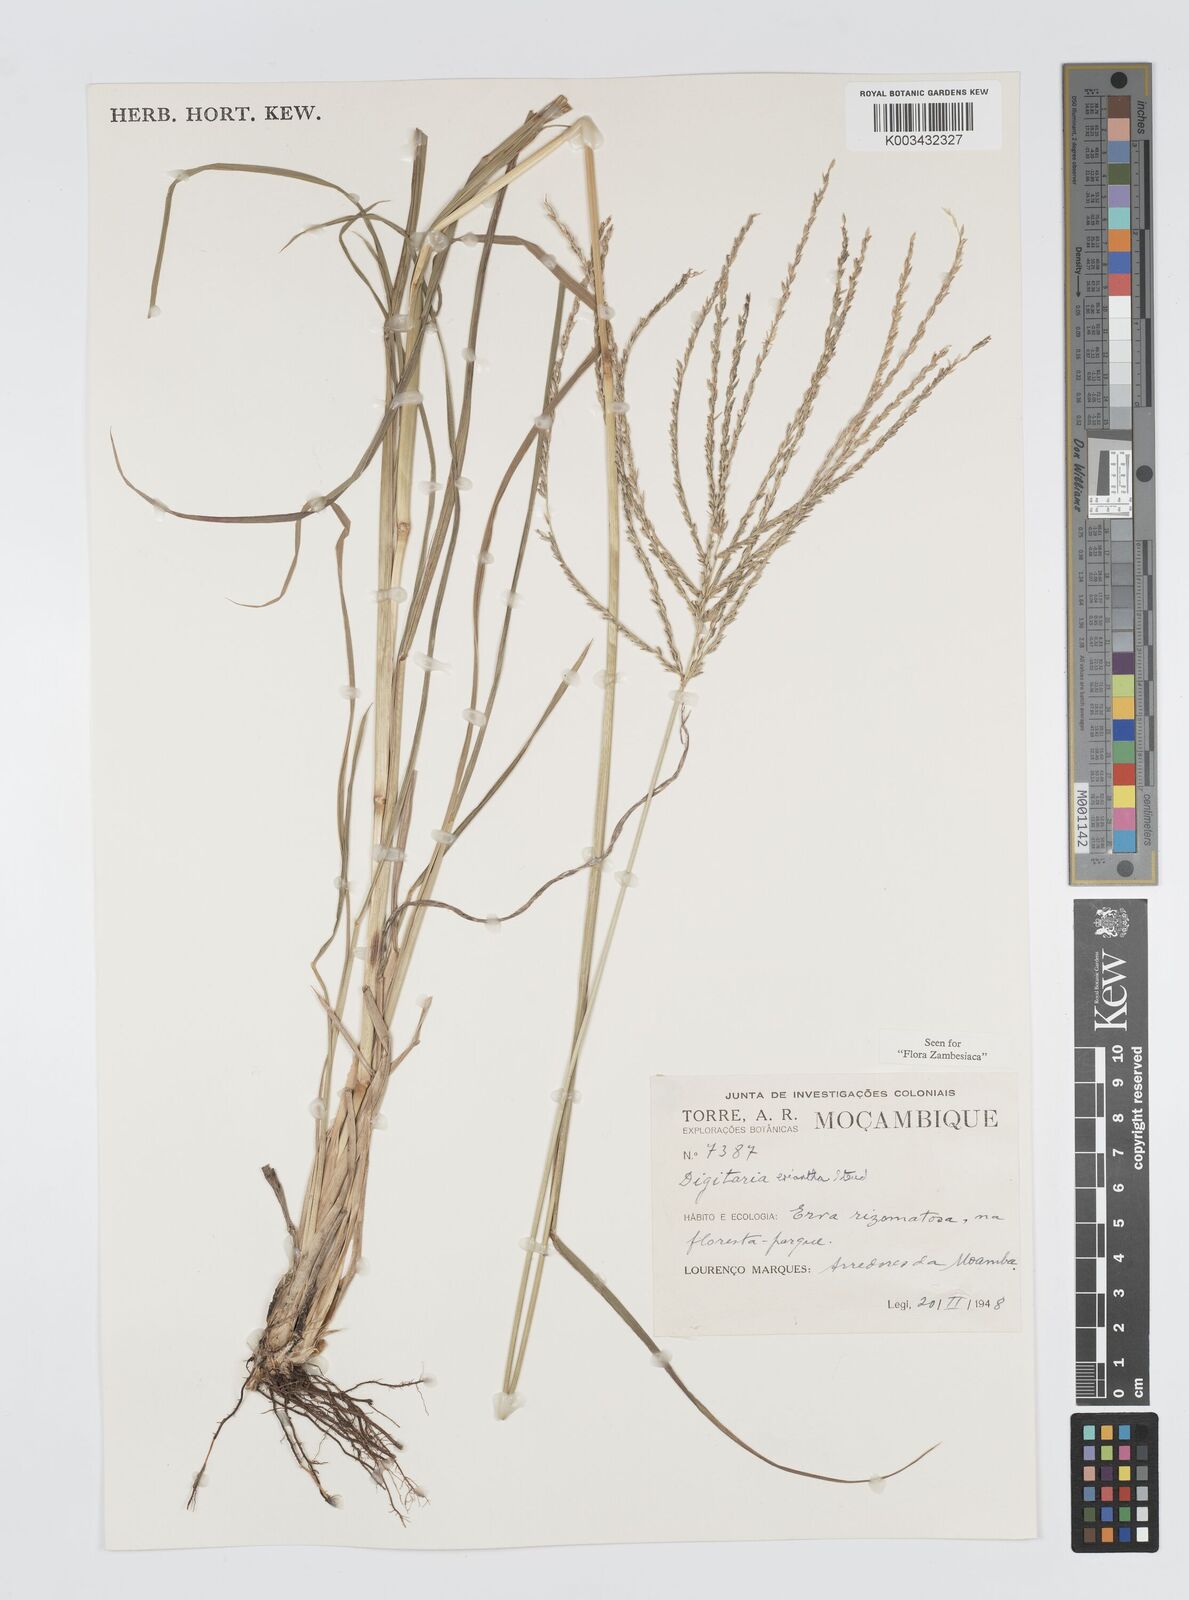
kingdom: Plantae
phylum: Tracheophyta
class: Liliopsida
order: Poales
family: Poaceae
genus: Digitaria
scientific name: Digitaria eriantha
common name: Digitgrass
